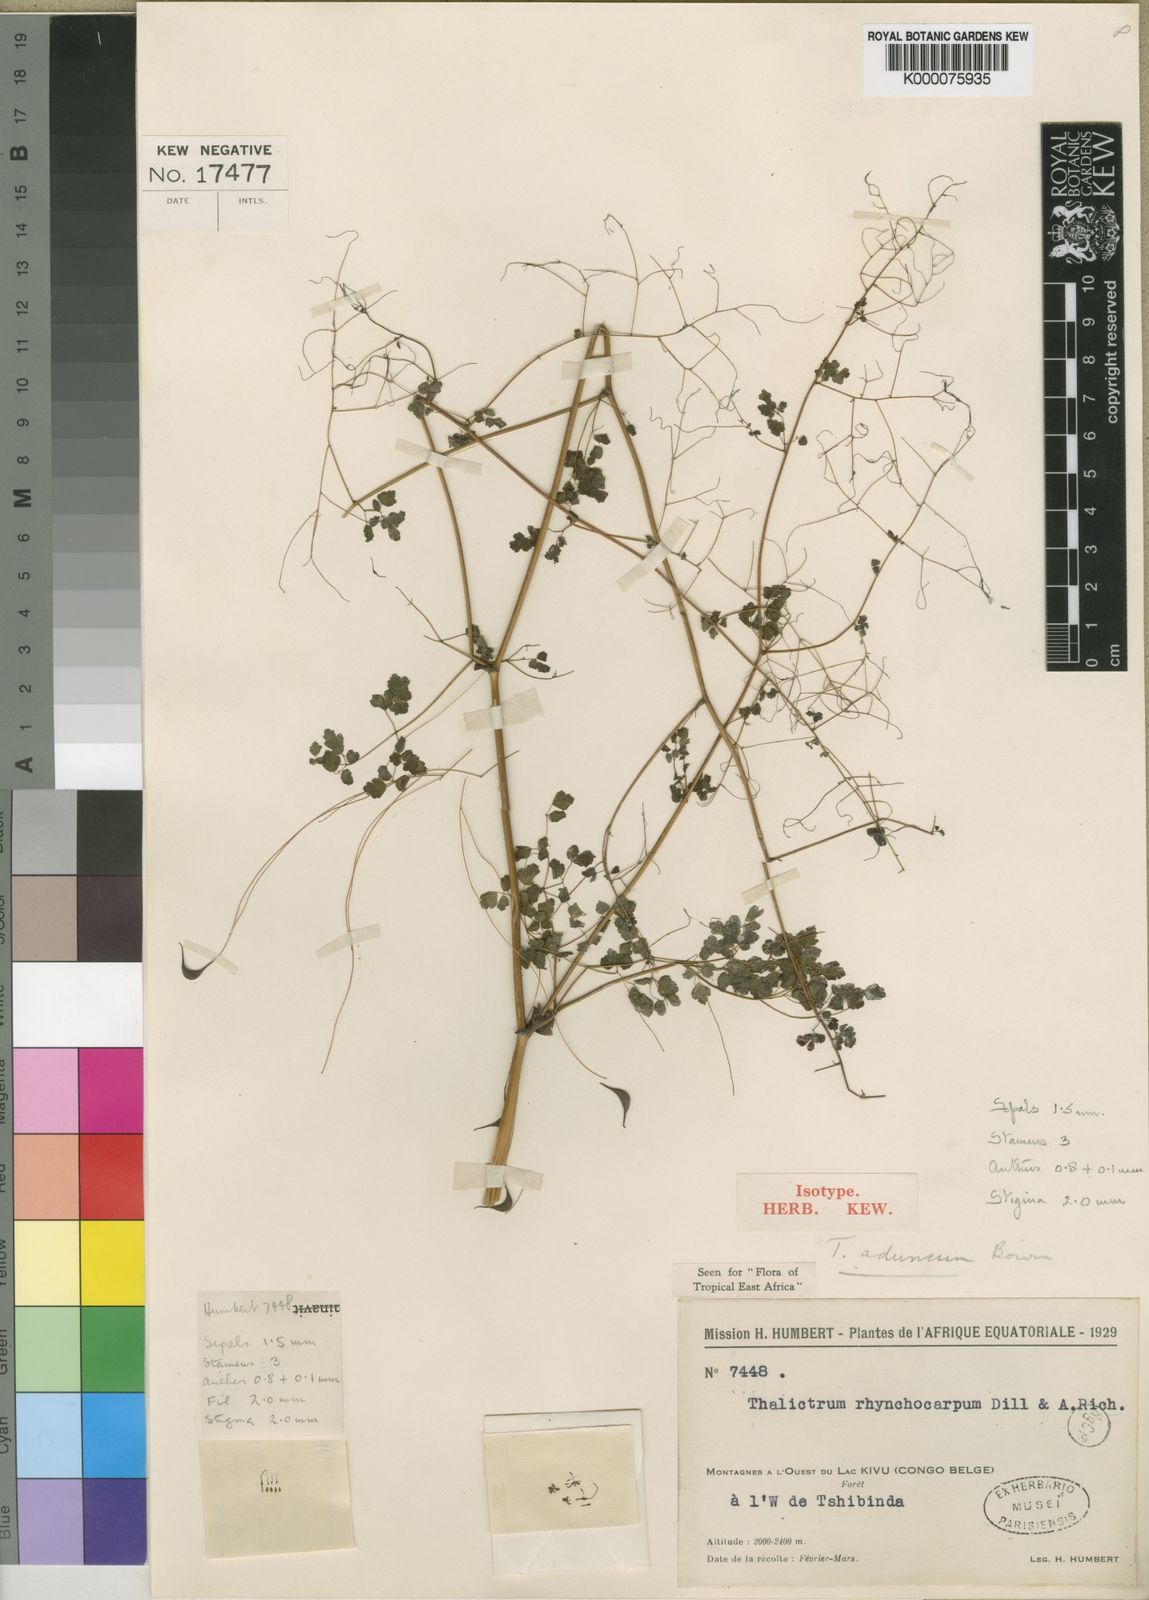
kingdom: Plantae
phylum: Tracheophyta
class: Magnoliopsida
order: Ranunculales
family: Ranunculaceae
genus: Thalictrum
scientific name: Thalictrum rhynchocarpum
